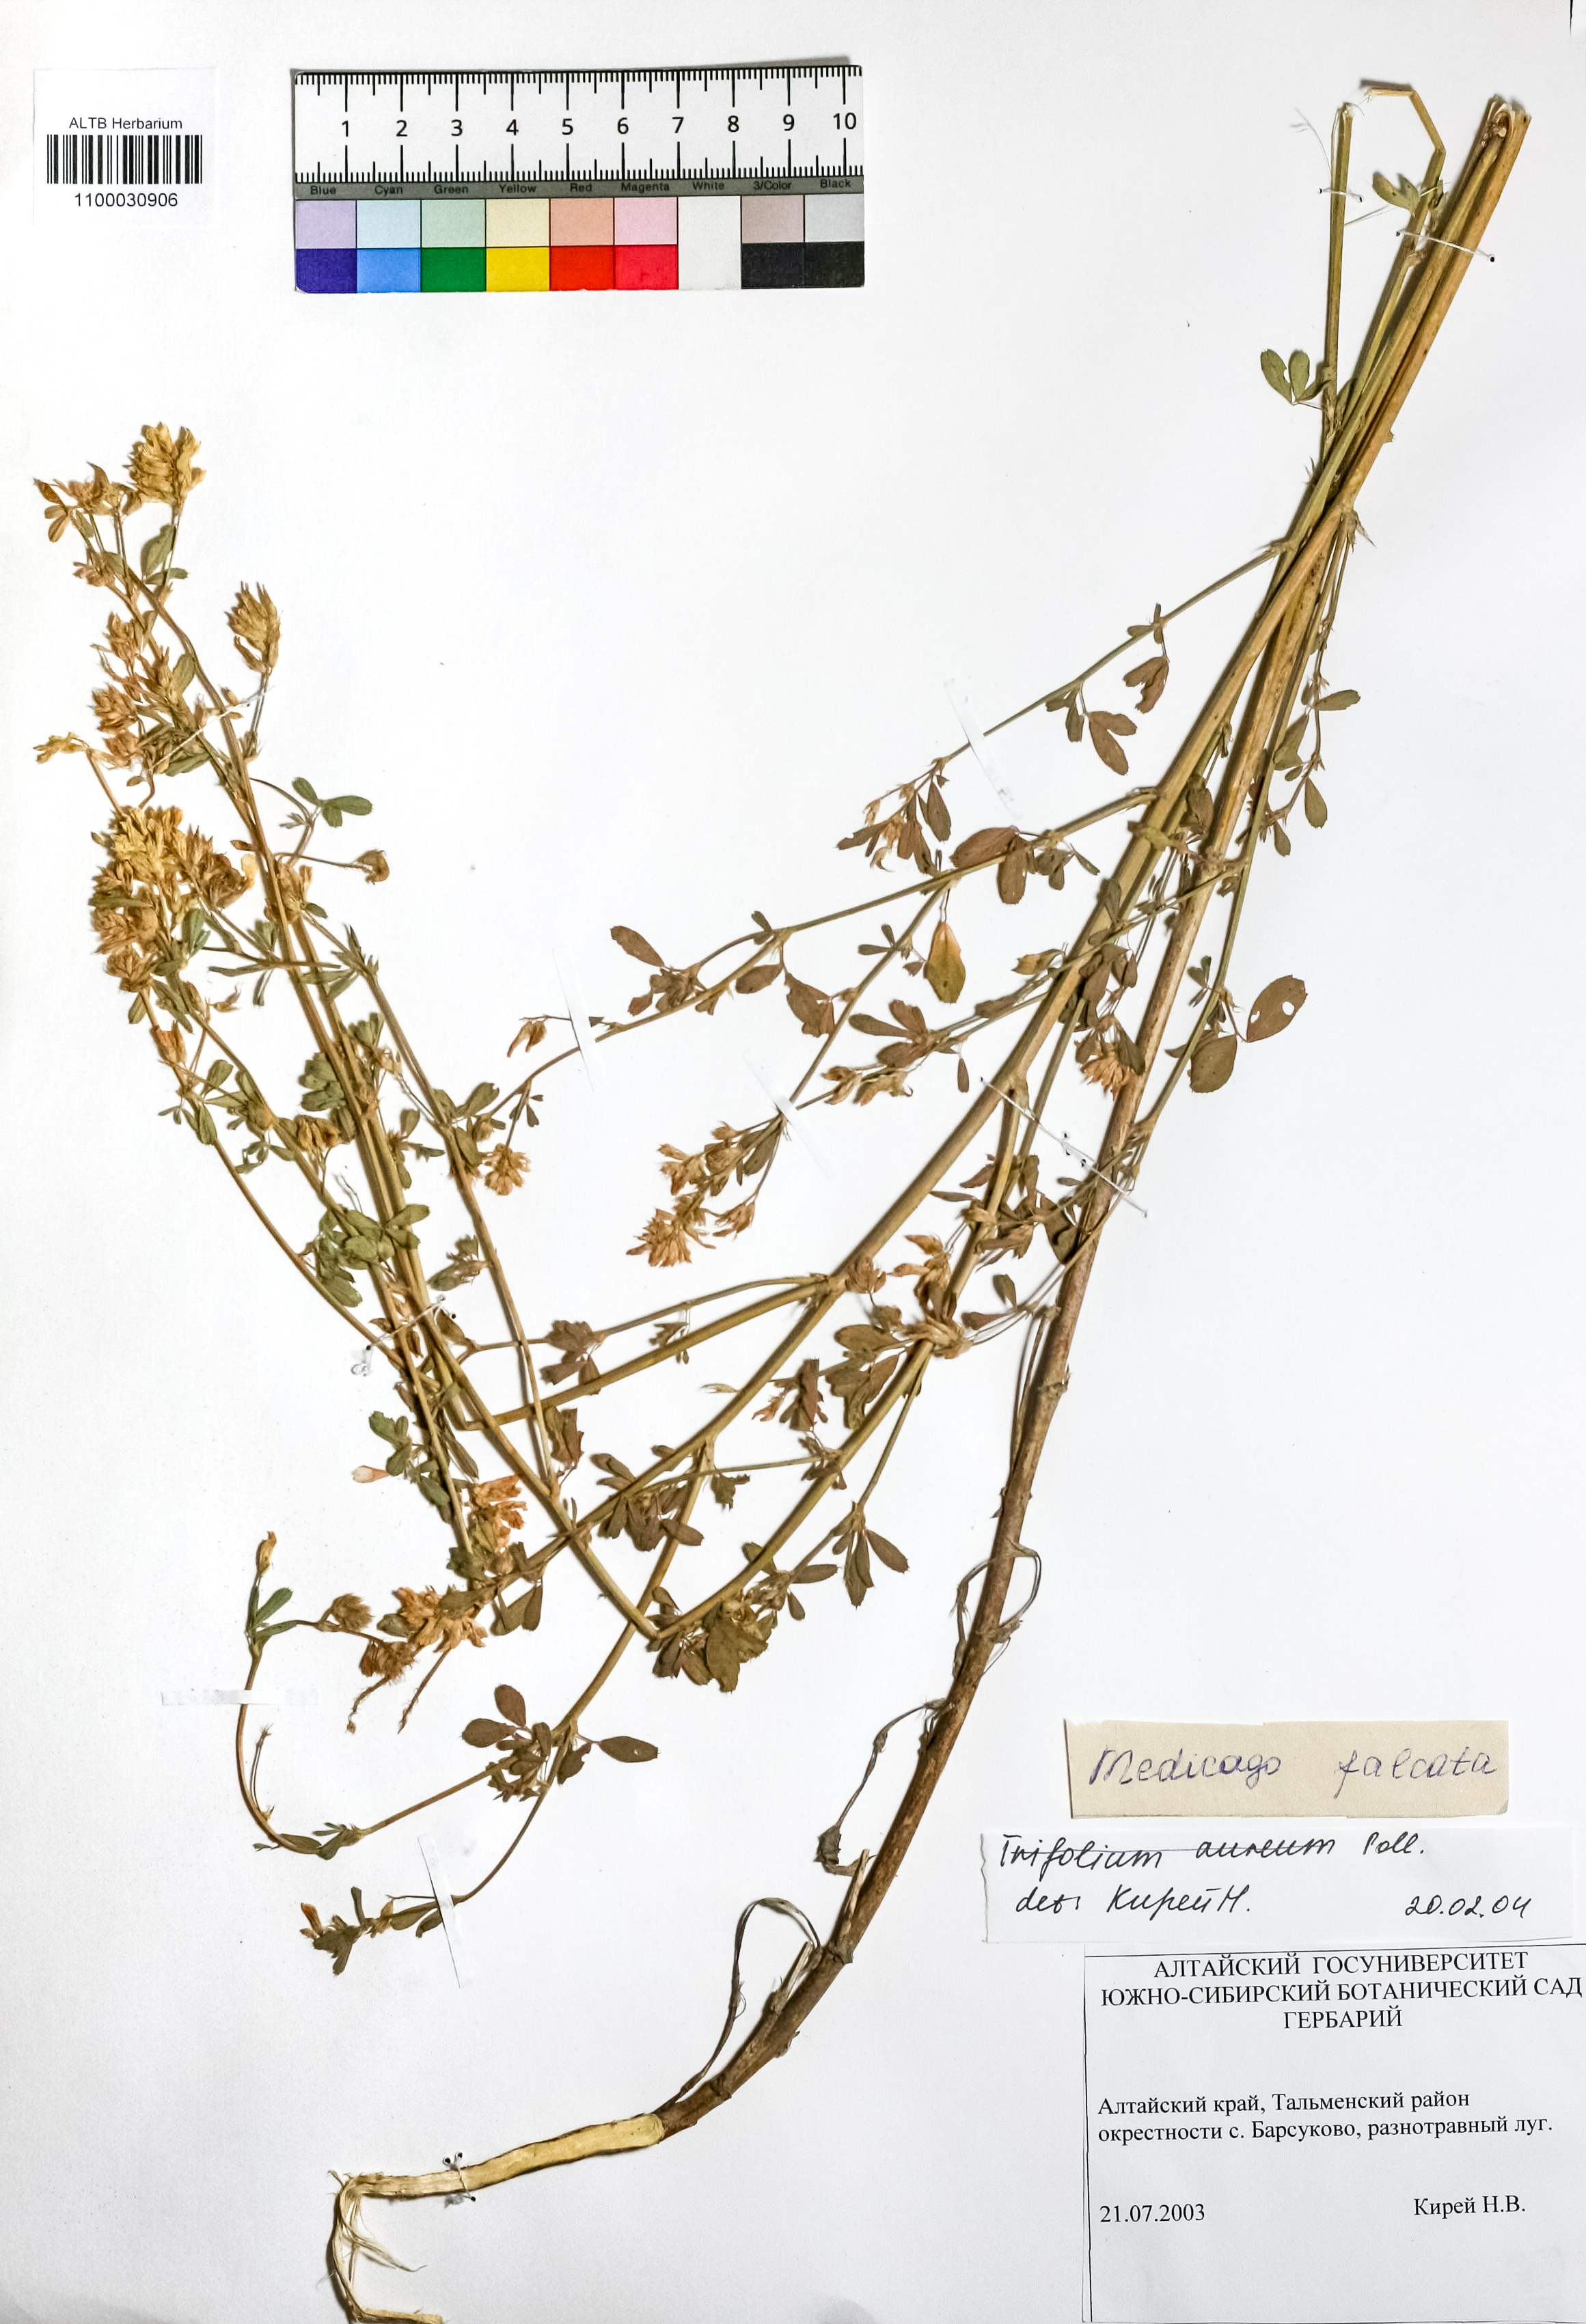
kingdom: Plantae
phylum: Tracheophyta
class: Magnoliopsida
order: Fabales
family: Fabaceae
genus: Medicago
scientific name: Medicago falcata
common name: Sickle medick
